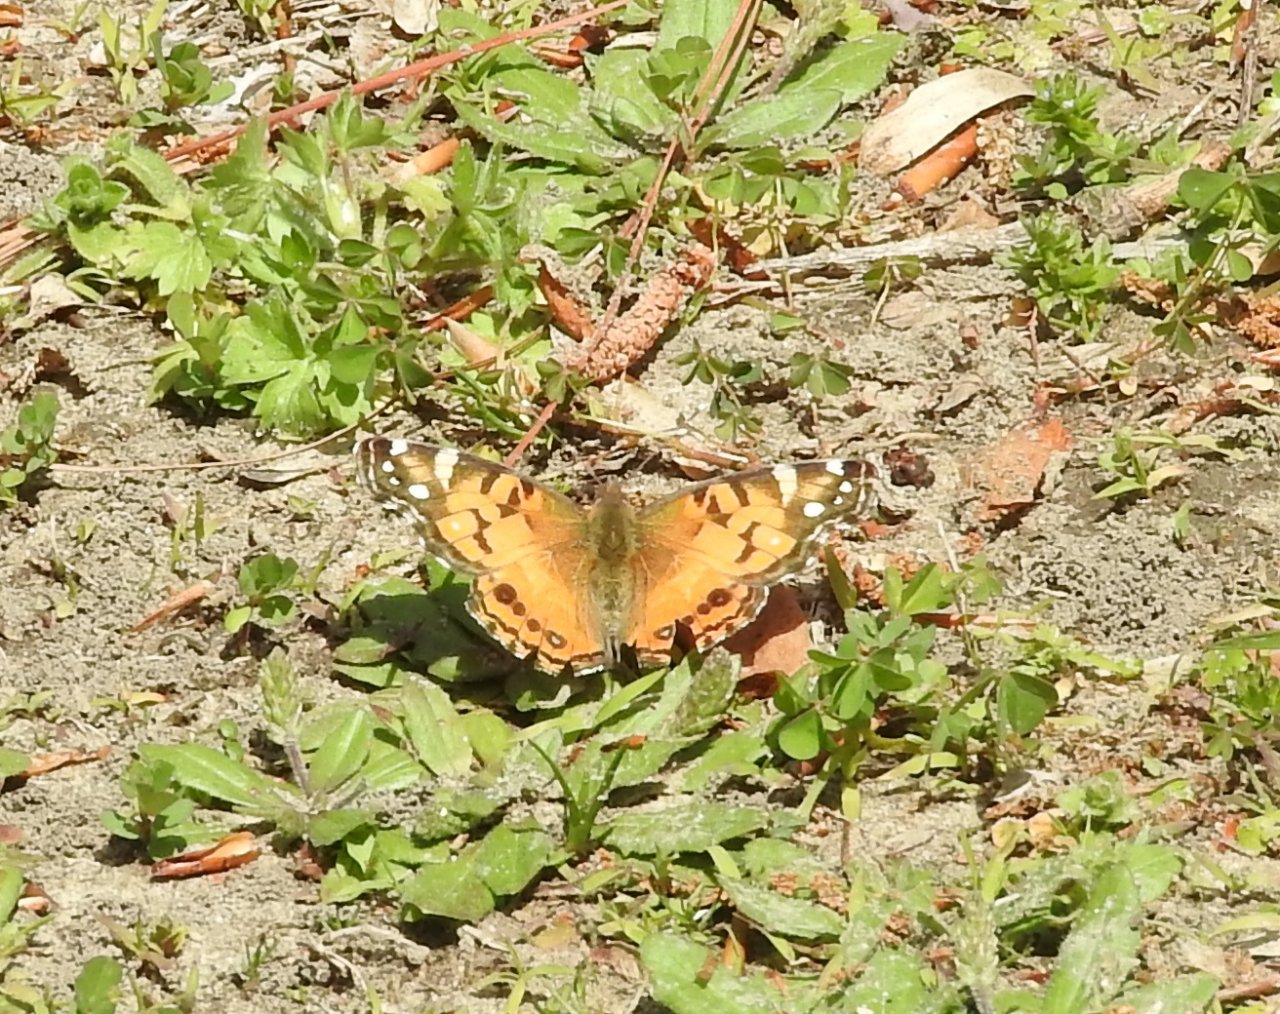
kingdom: Animalia
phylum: Arthropoda
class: Insecta
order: Lepidoptera
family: Nymphalidae
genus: Vanessa
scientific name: Vanessa virginiensis
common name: American Lady
